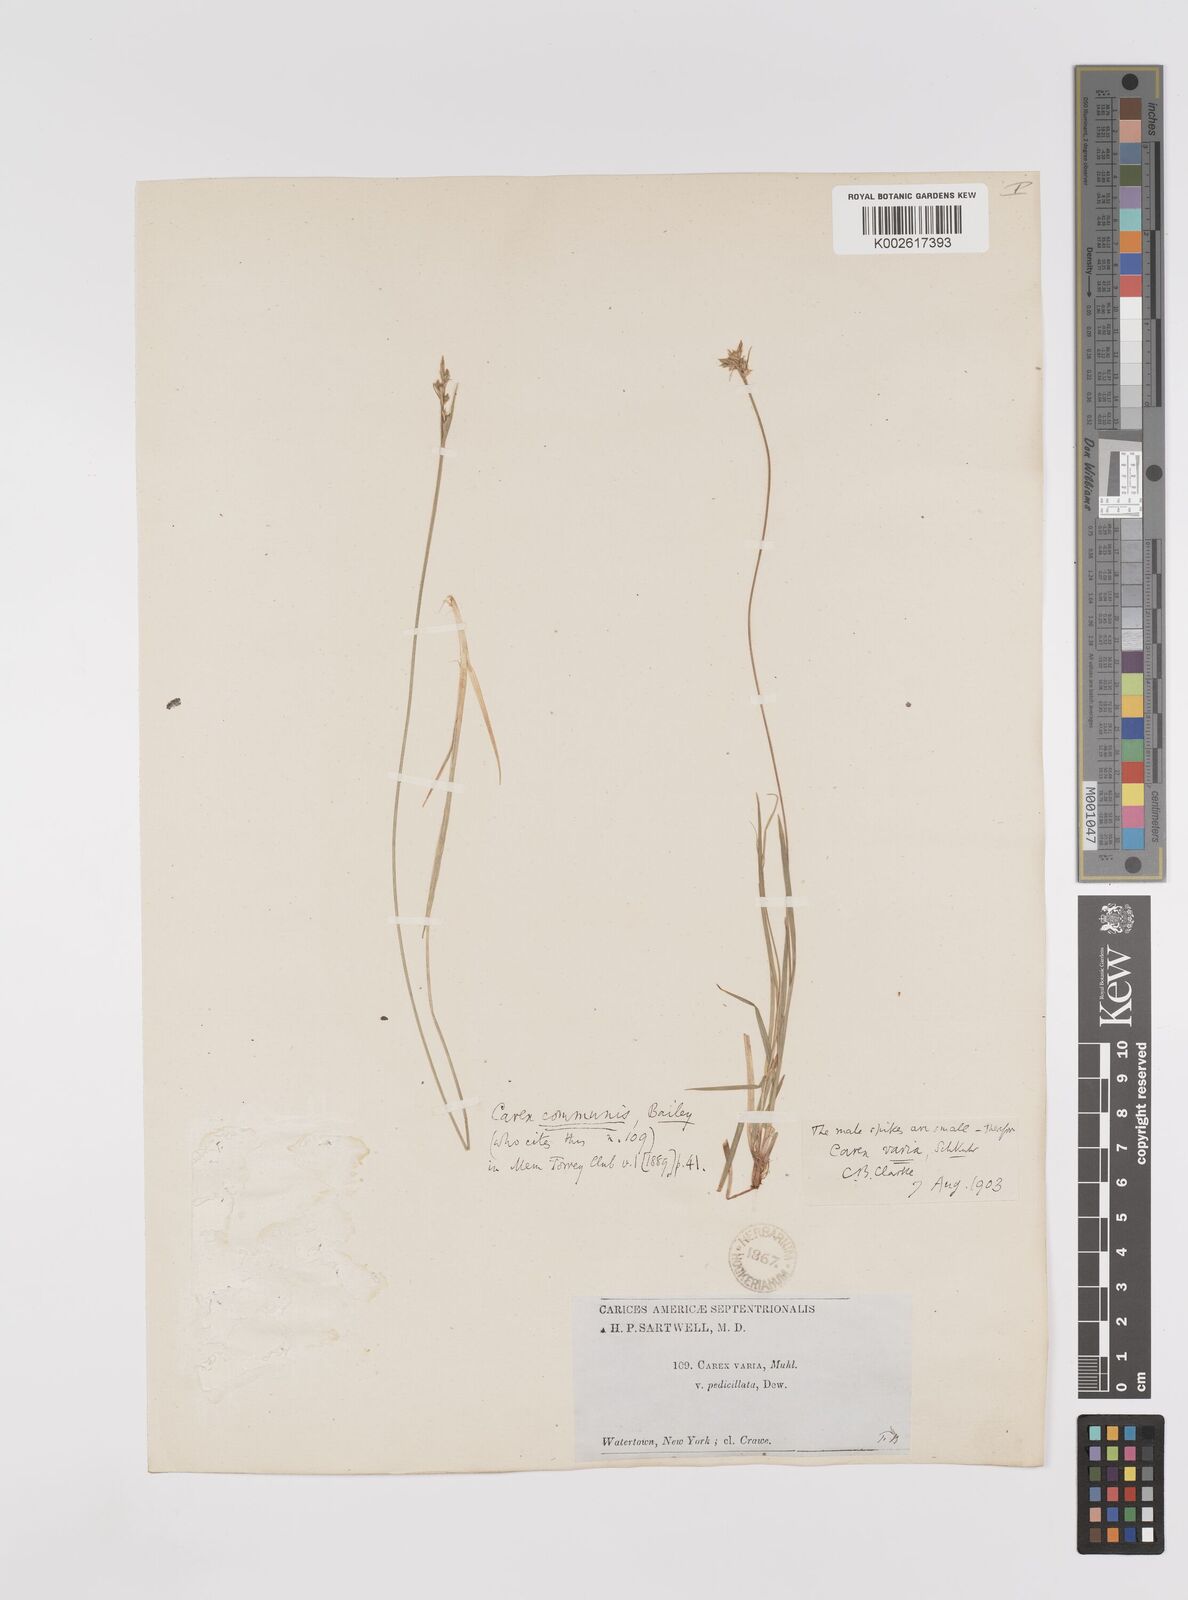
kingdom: Plantae
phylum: Tracheophyta
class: Liliopsida
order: Poales
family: Cyperaceae
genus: Carex
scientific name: Carex communis
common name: Colonial oak sedge
